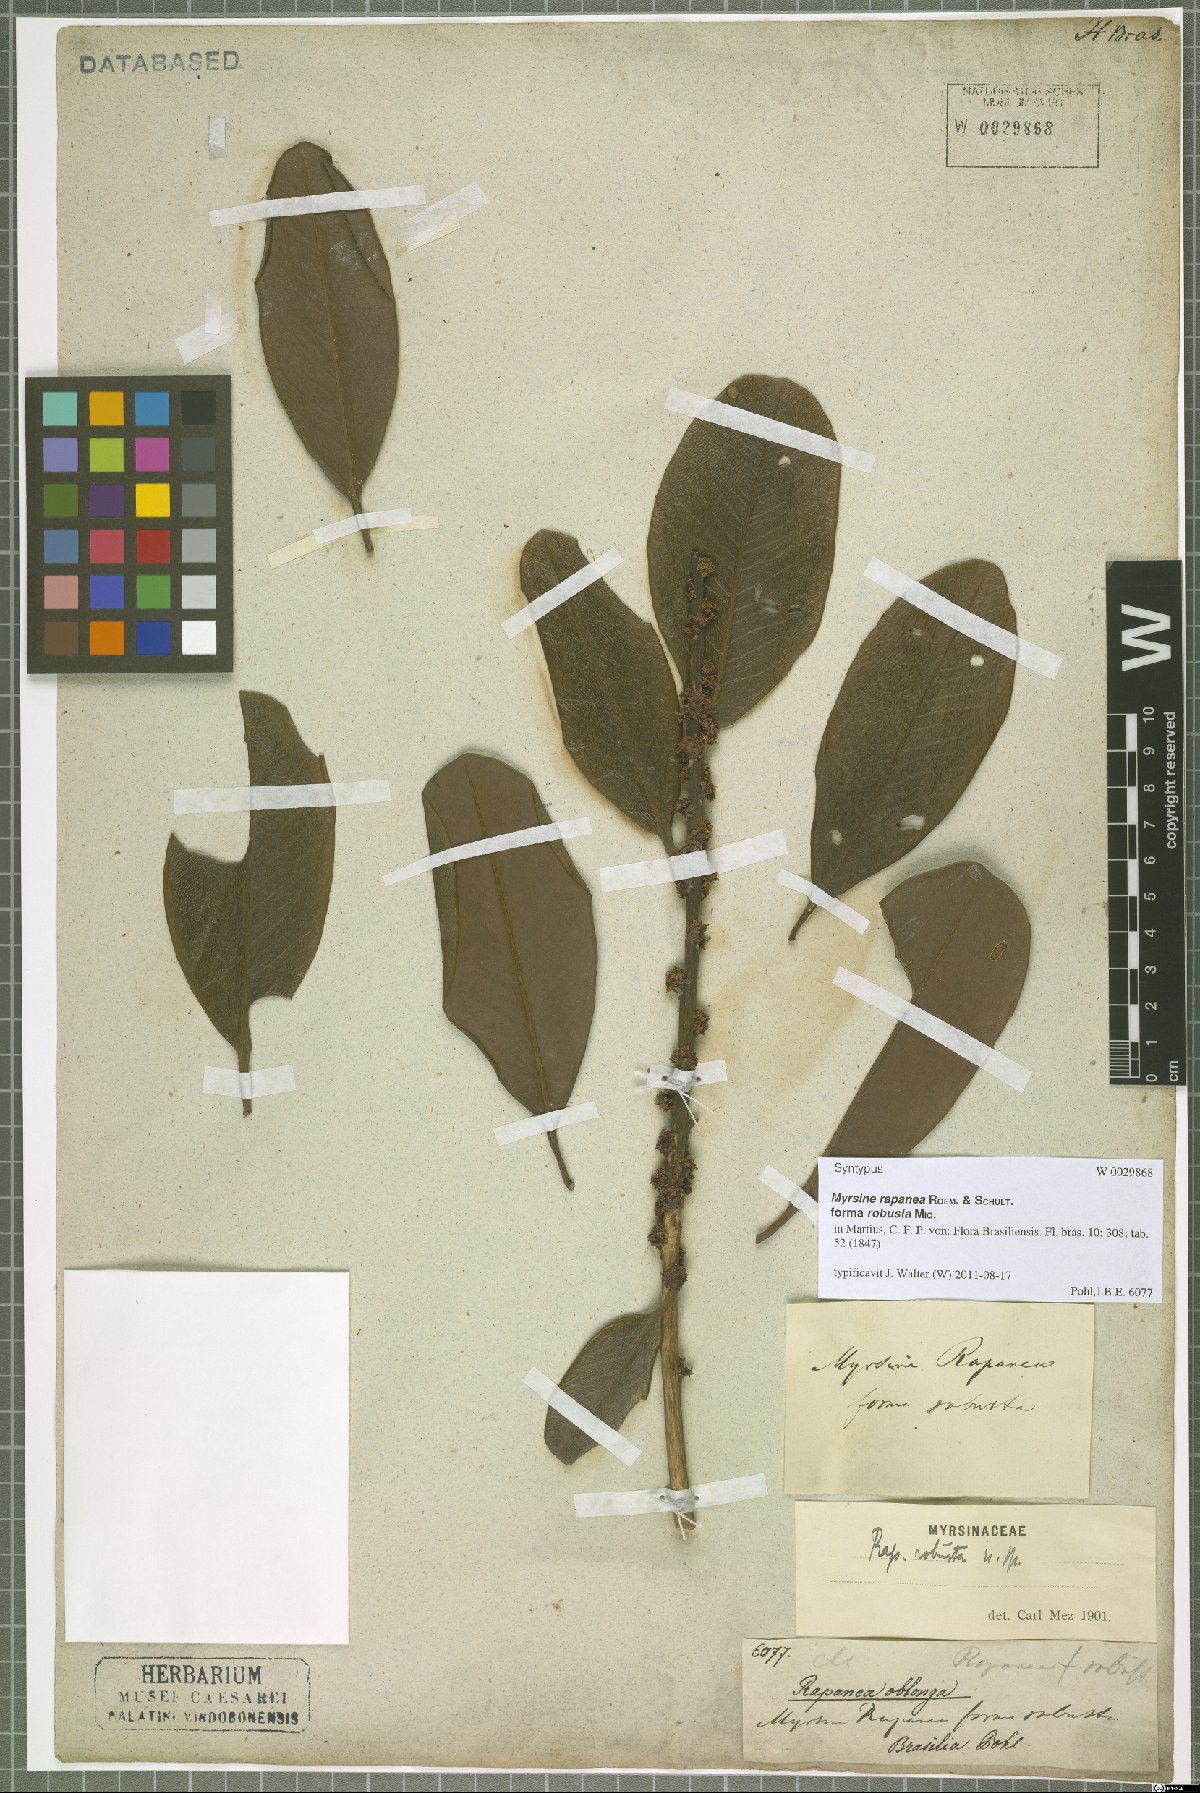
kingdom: Plantae
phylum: Tracheophyta
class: Magnoliopsida
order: Ericales
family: Primulaceae
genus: Myrsine
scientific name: Myrsine guianensis
